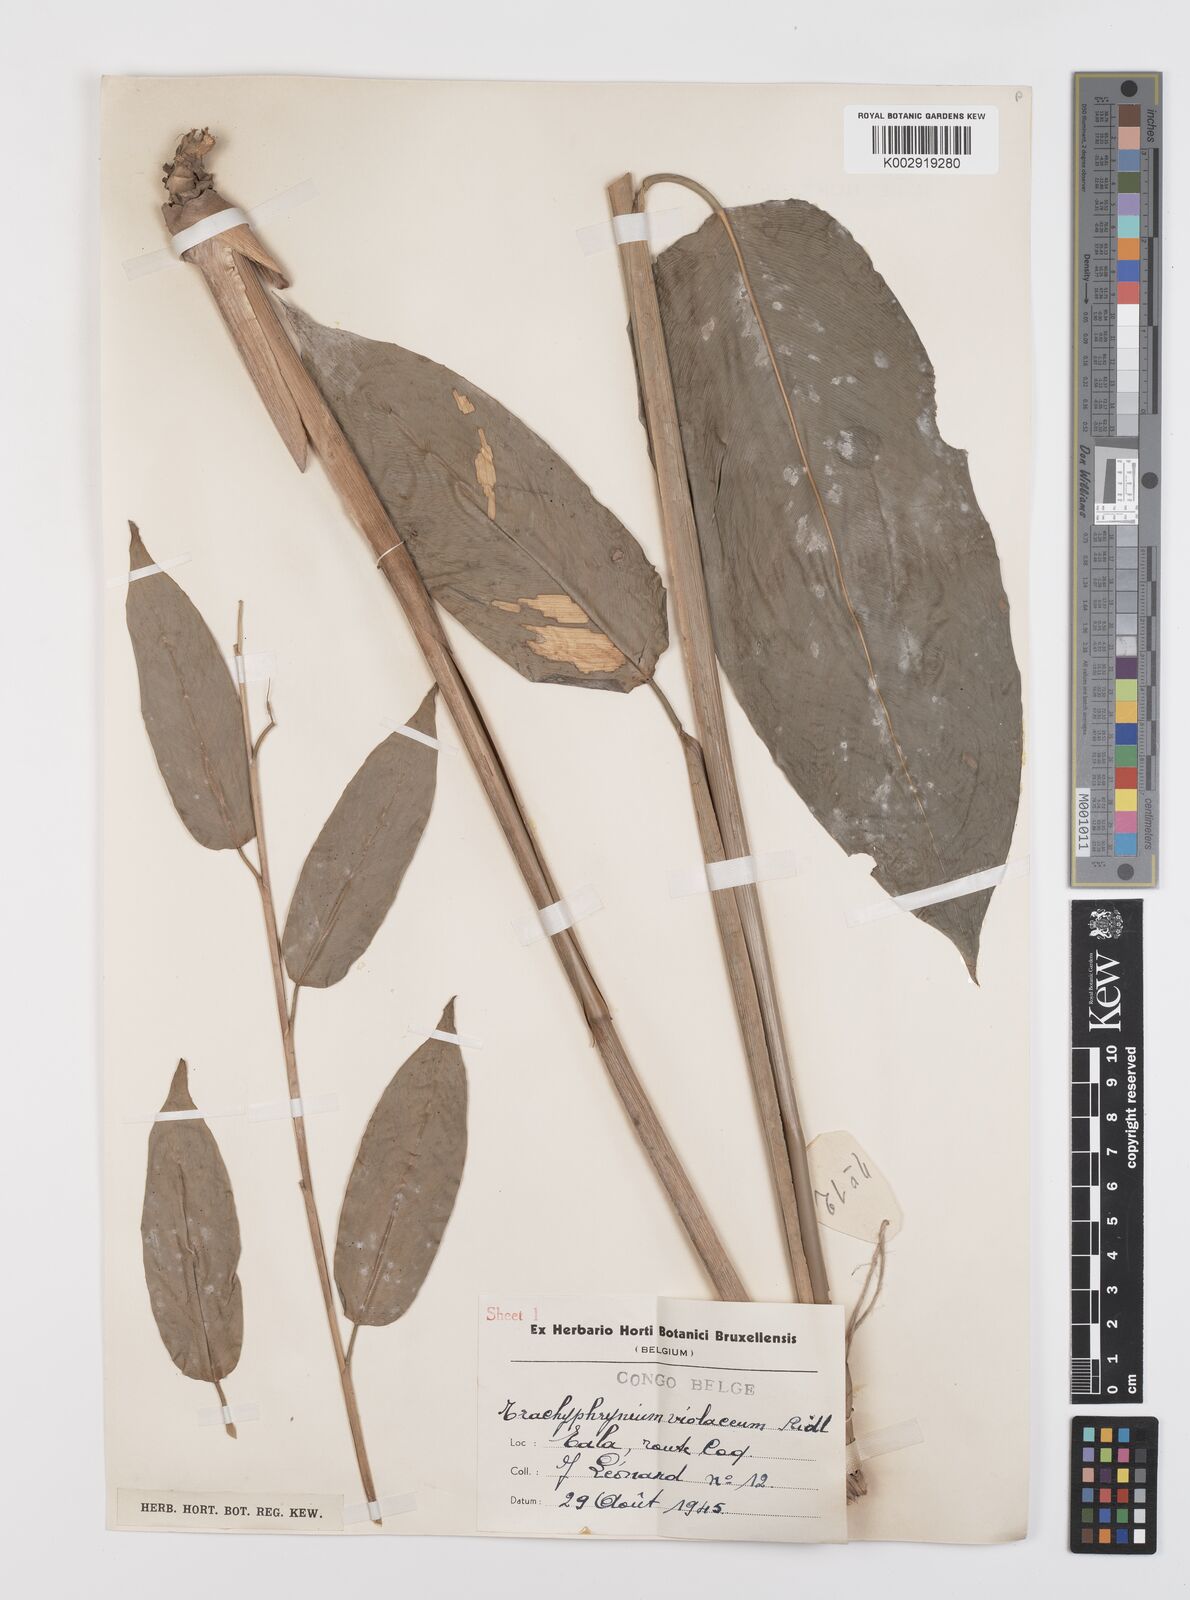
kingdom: Plantae
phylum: Tracheophyta
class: Liliopsida
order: Zingiberales
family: Marantaceae
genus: Hypselodelphys
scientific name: Hypselodelphys poggeana
